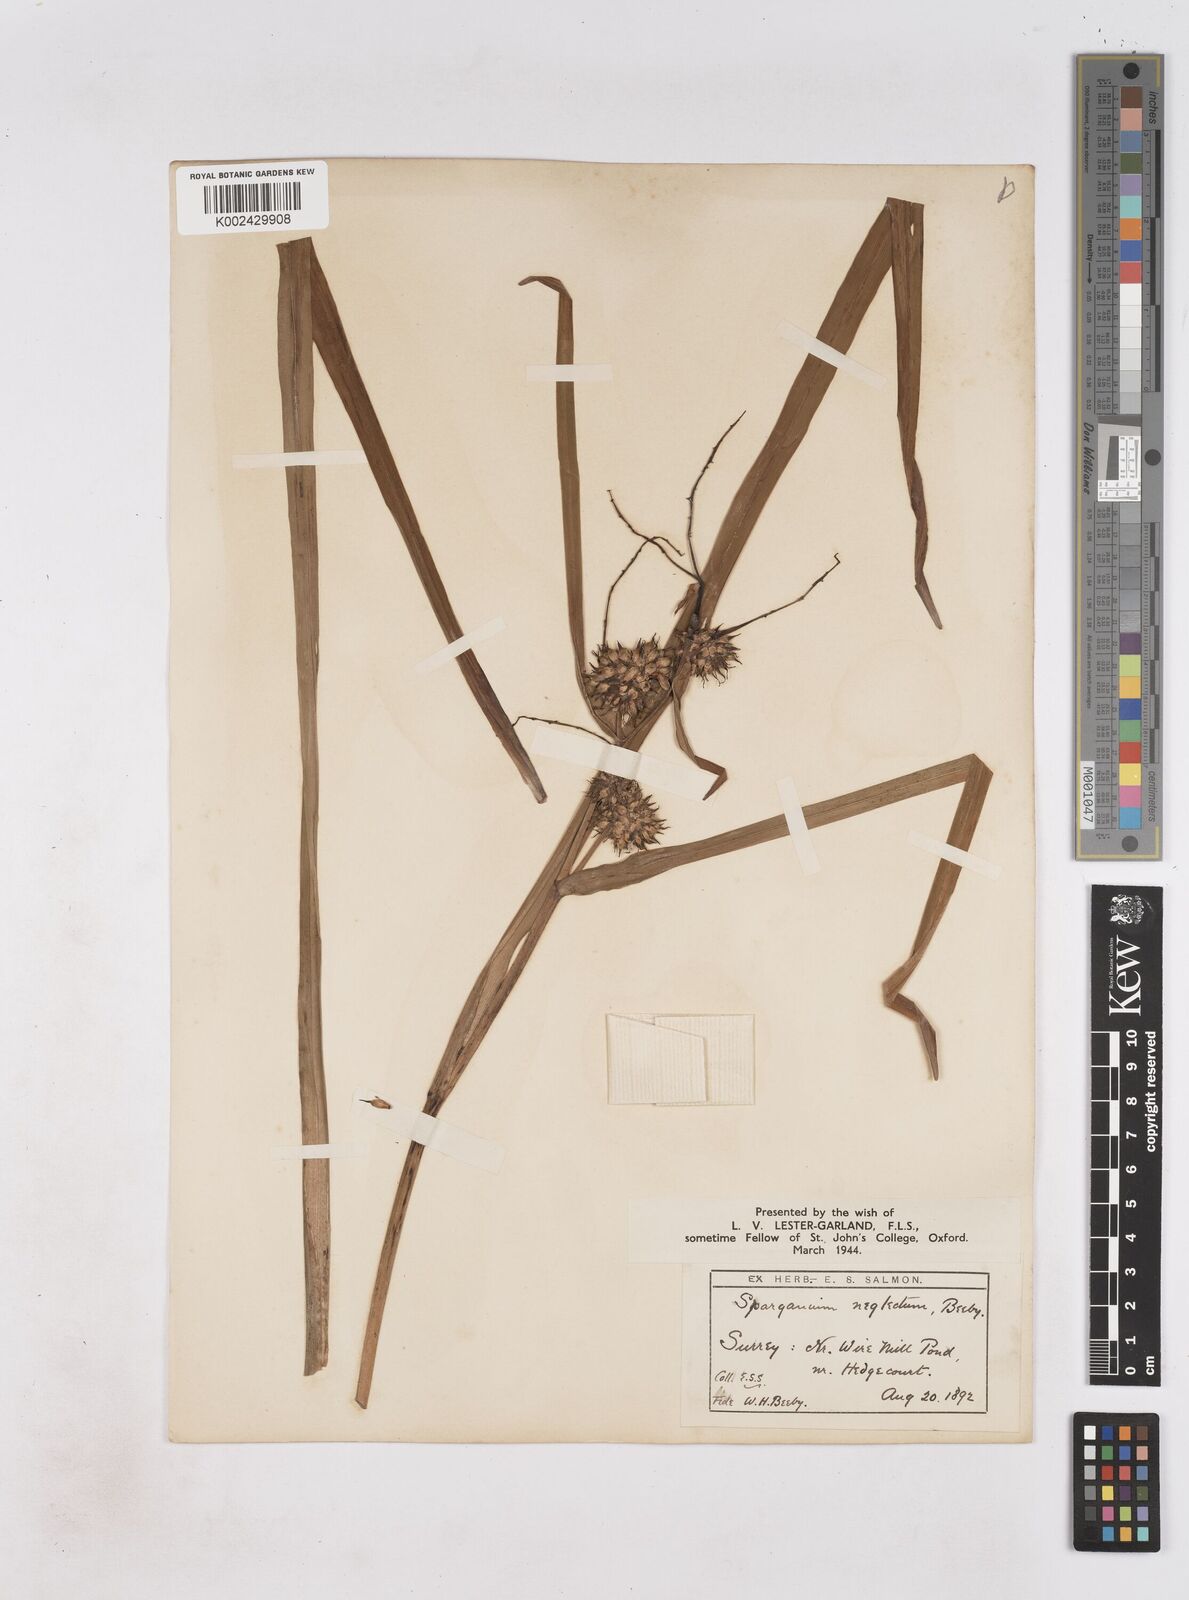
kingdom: Plantae
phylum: Tracheophyta
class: Liliopsida
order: Poales
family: Typhaceae
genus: Sparganium
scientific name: Sparganium erectum
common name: Branched bur-reed
